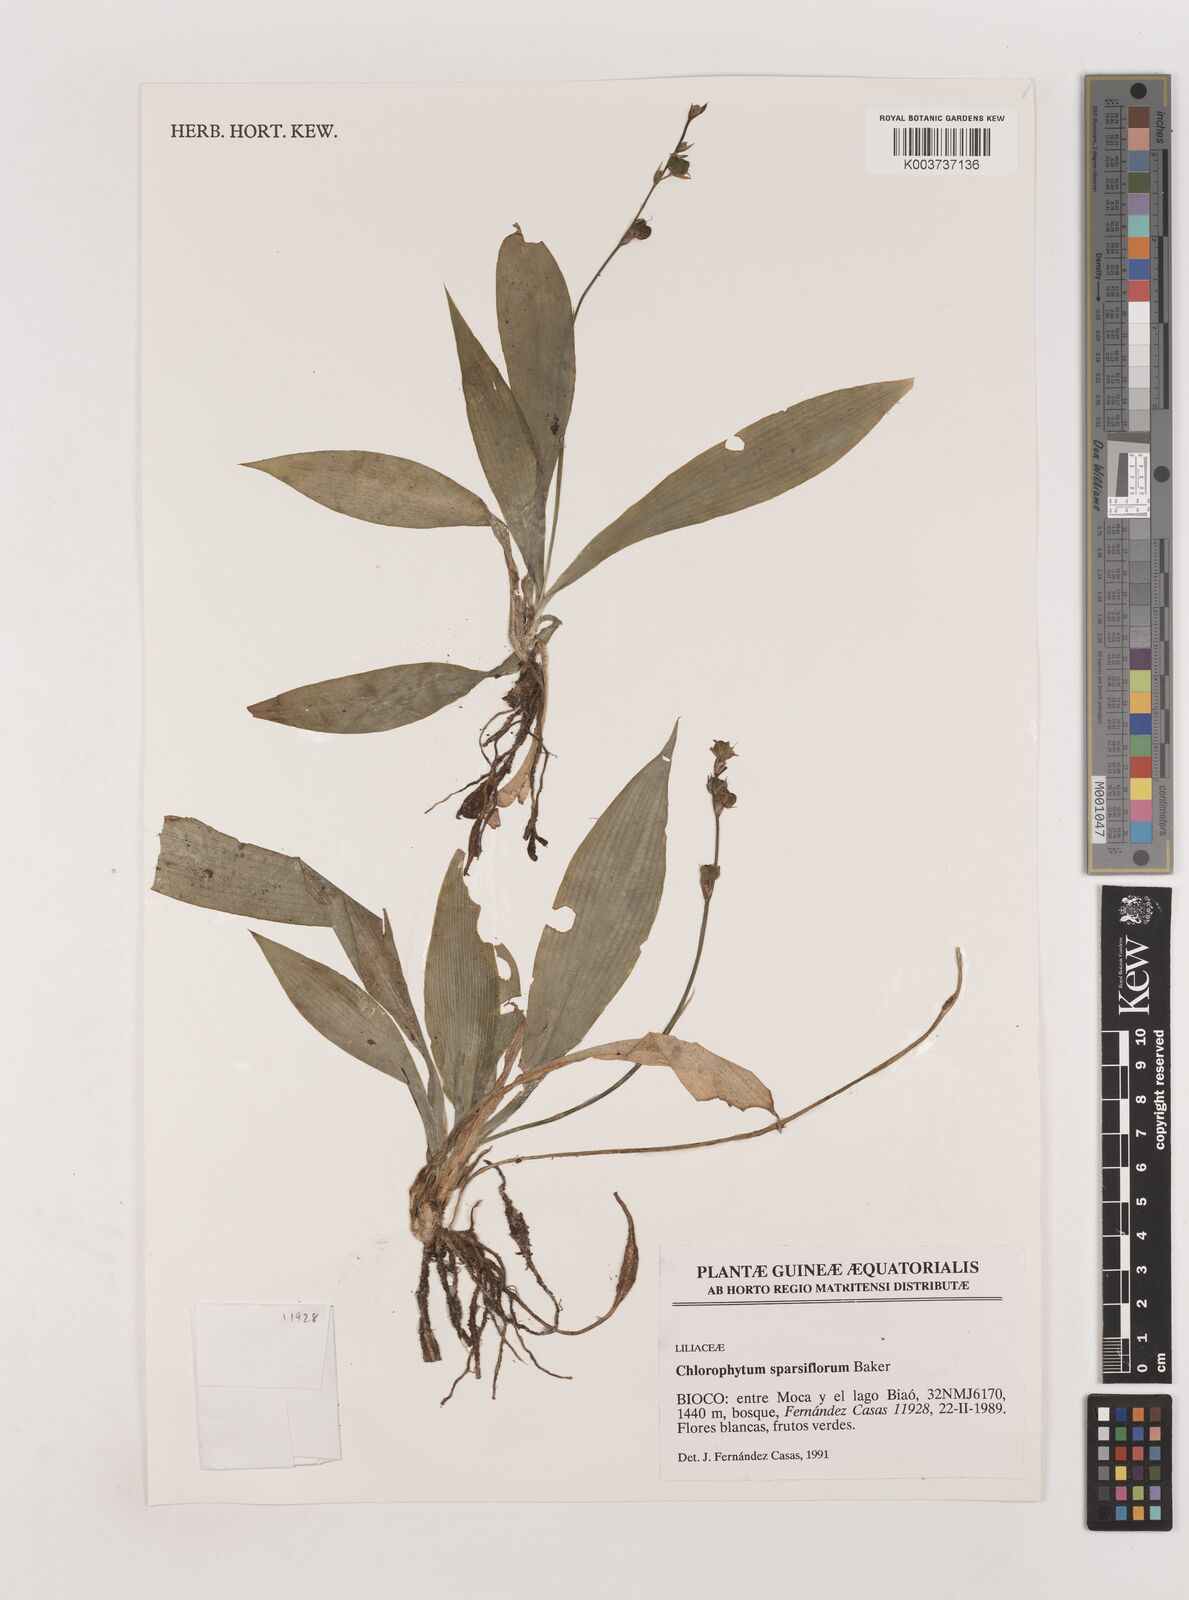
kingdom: Plantae
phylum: Tracheophyta
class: Liliopsida
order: Asparagales
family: Asparagaceae
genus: Chlorophytum
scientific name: Chlorophytum sparsiflorum
